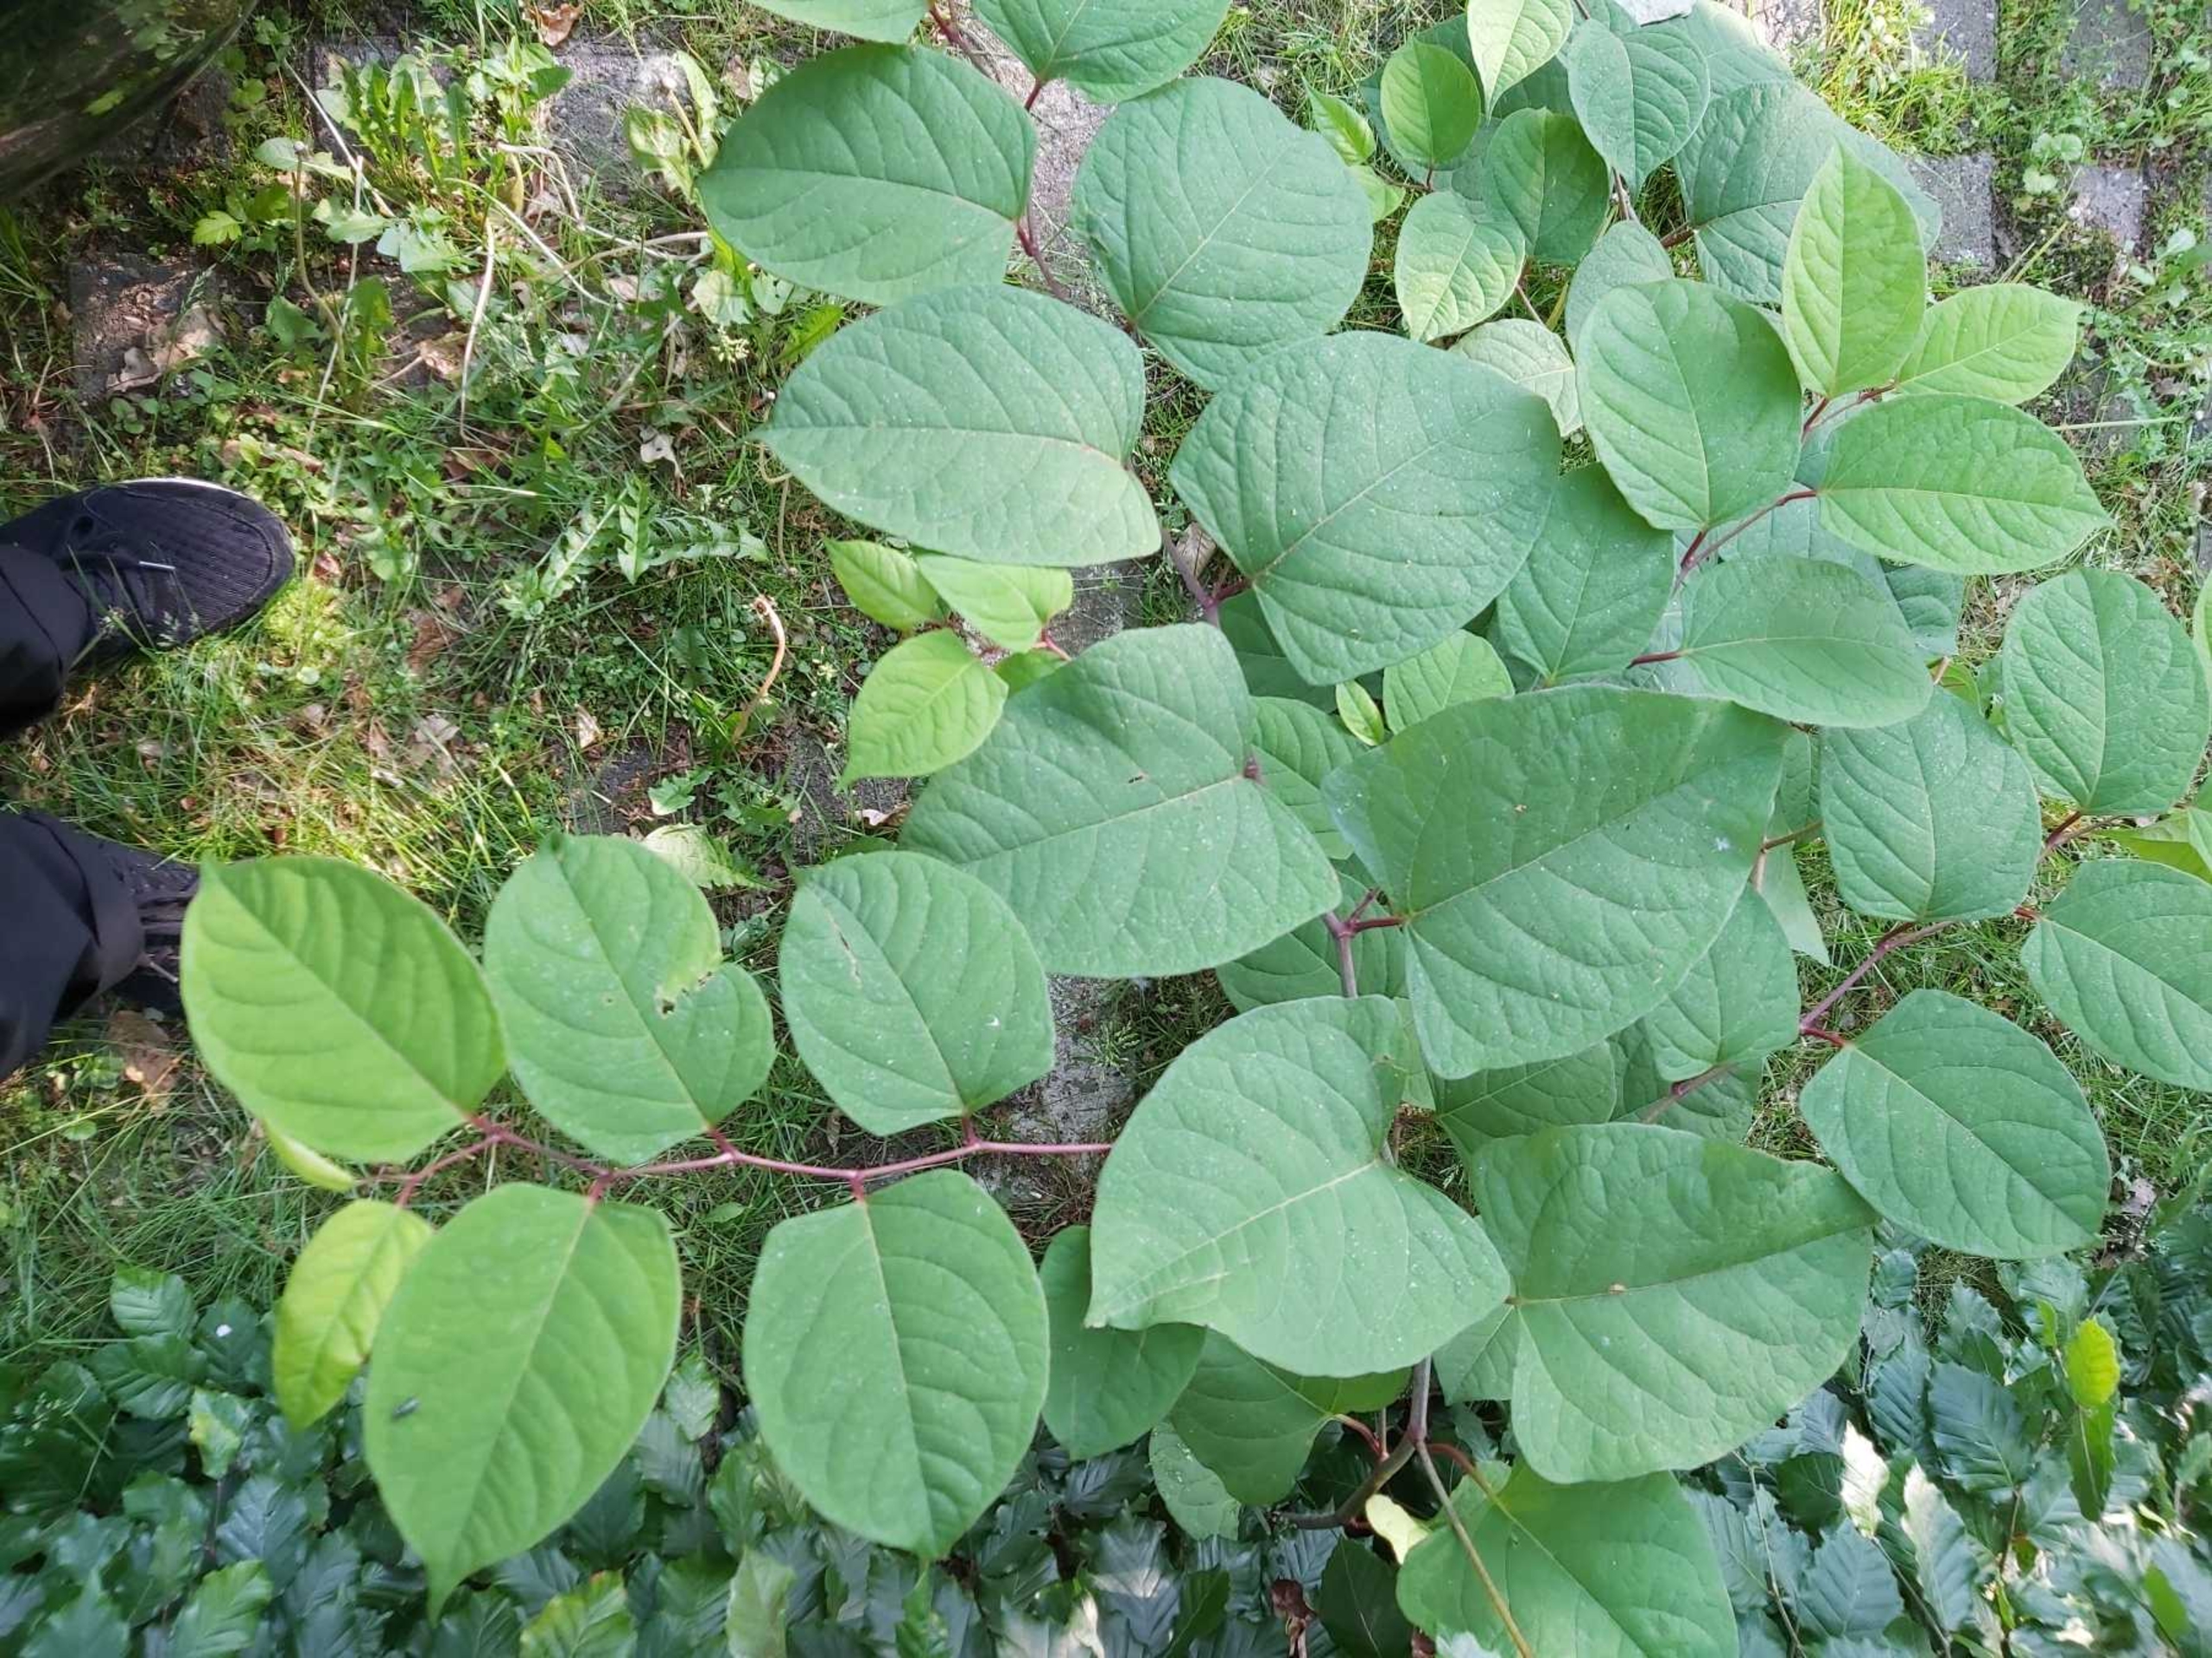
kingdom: Plantae
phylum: Tracheophyta
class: Magnoliopsida
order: Caryophyllales
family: Polygonaceae
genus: Reynoutria
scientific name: Reynoutria japonica
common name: Japan-pileurt
